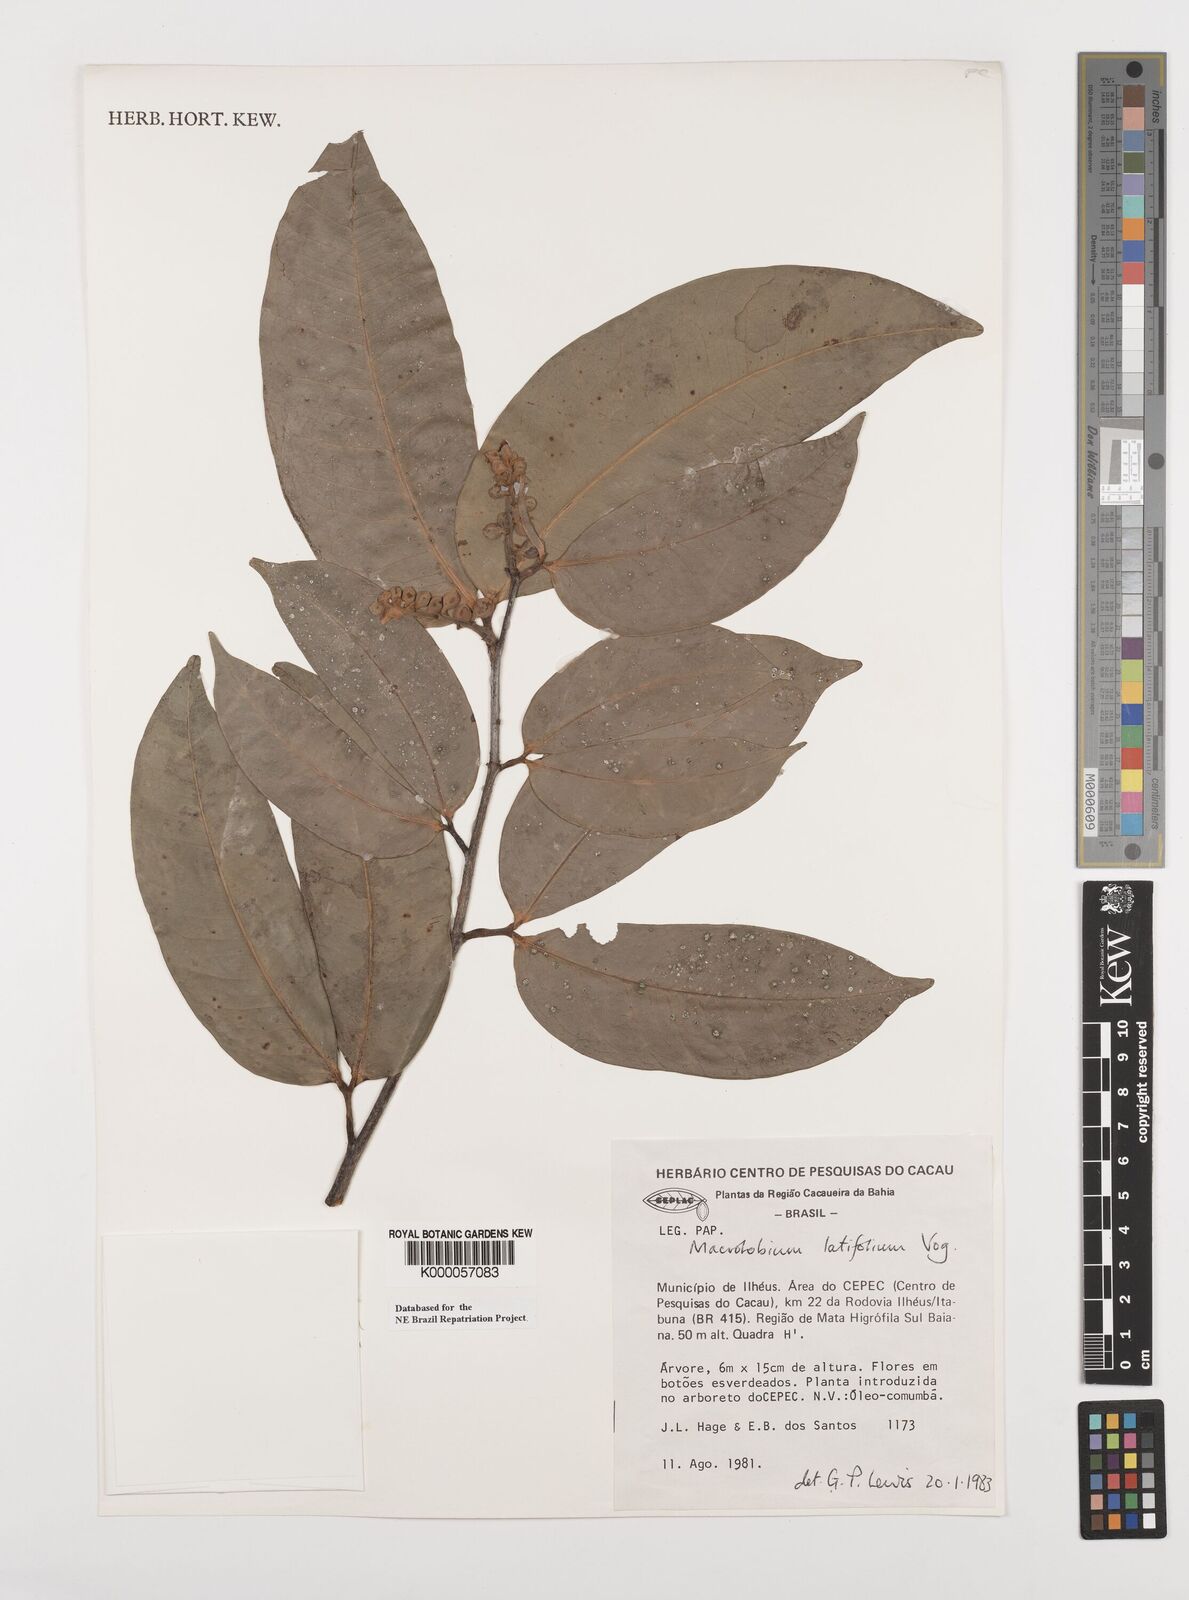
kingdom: Plantae
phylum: Tracheophyta
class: Magnoliopsida
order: Fabales
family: Fabaceae
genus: Macrolobium
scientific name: Macrolobium latifolium
